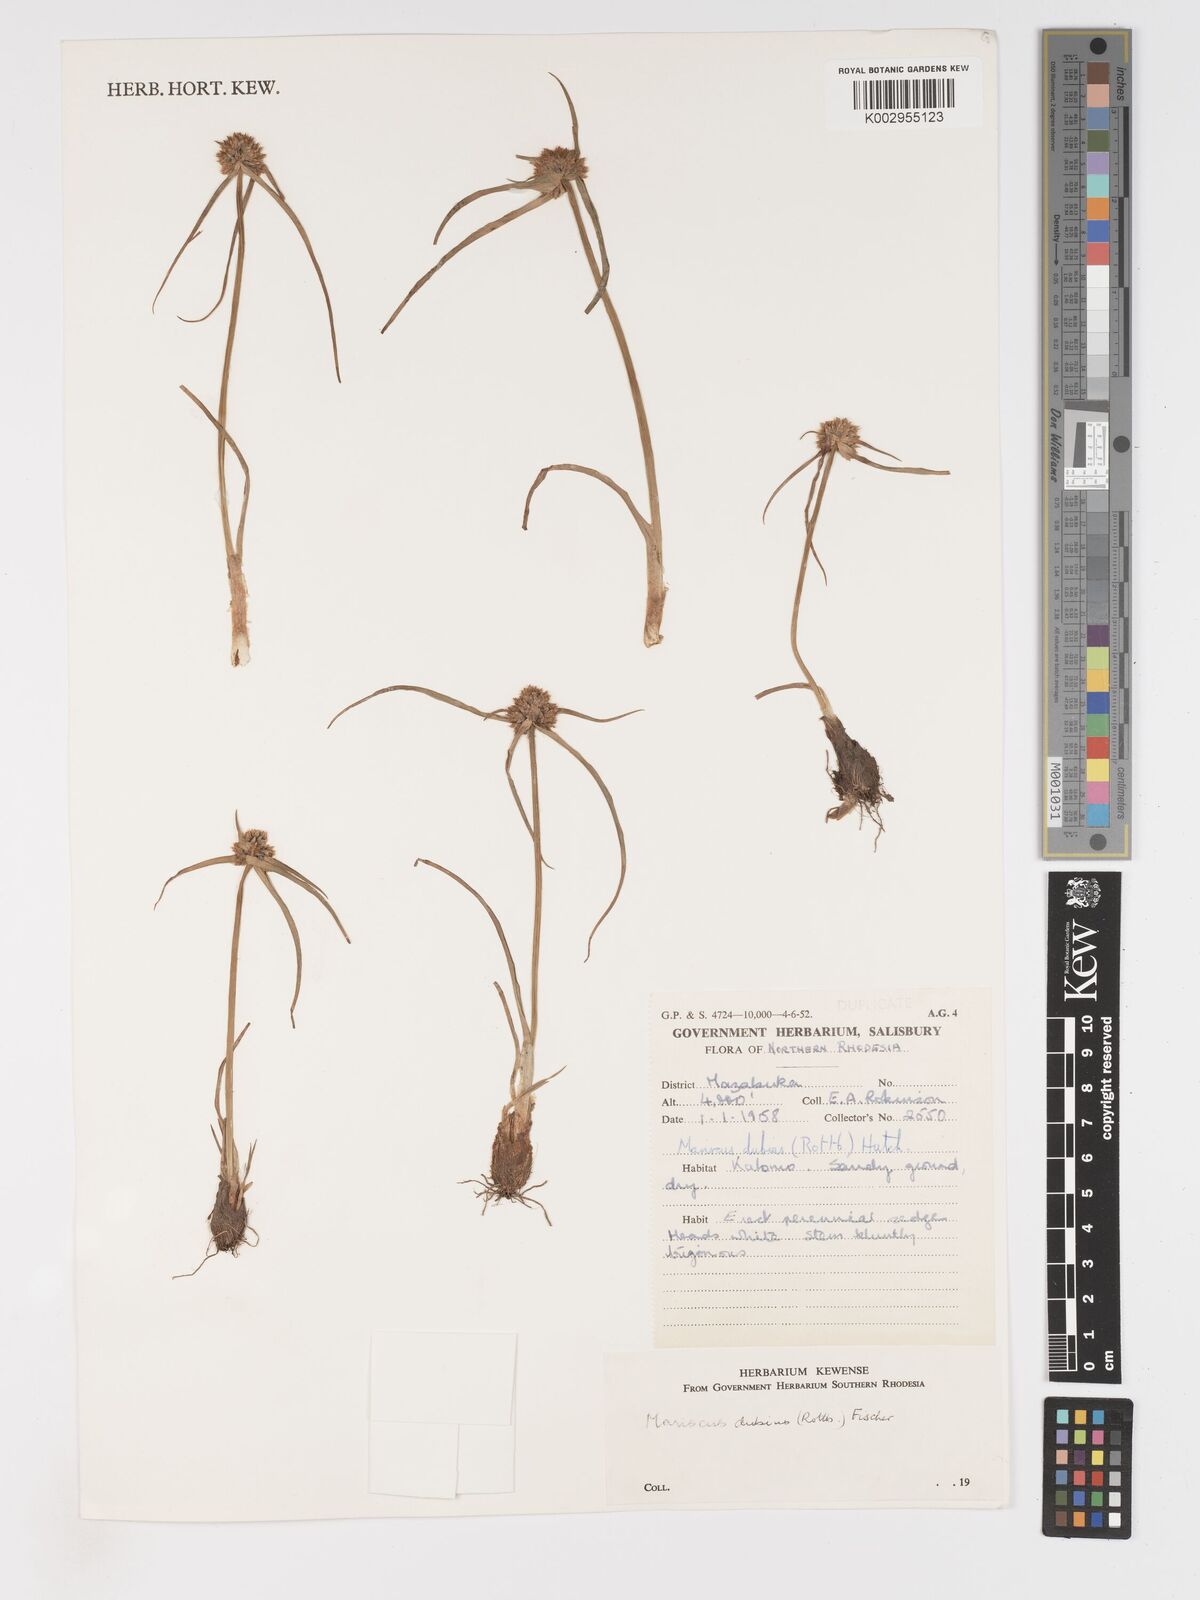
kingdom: Plantae
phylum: Tracheophyta
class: Liliopsida
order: Poales
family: Cyperaceae
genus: Cyperus
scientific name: Cyperus dubius
